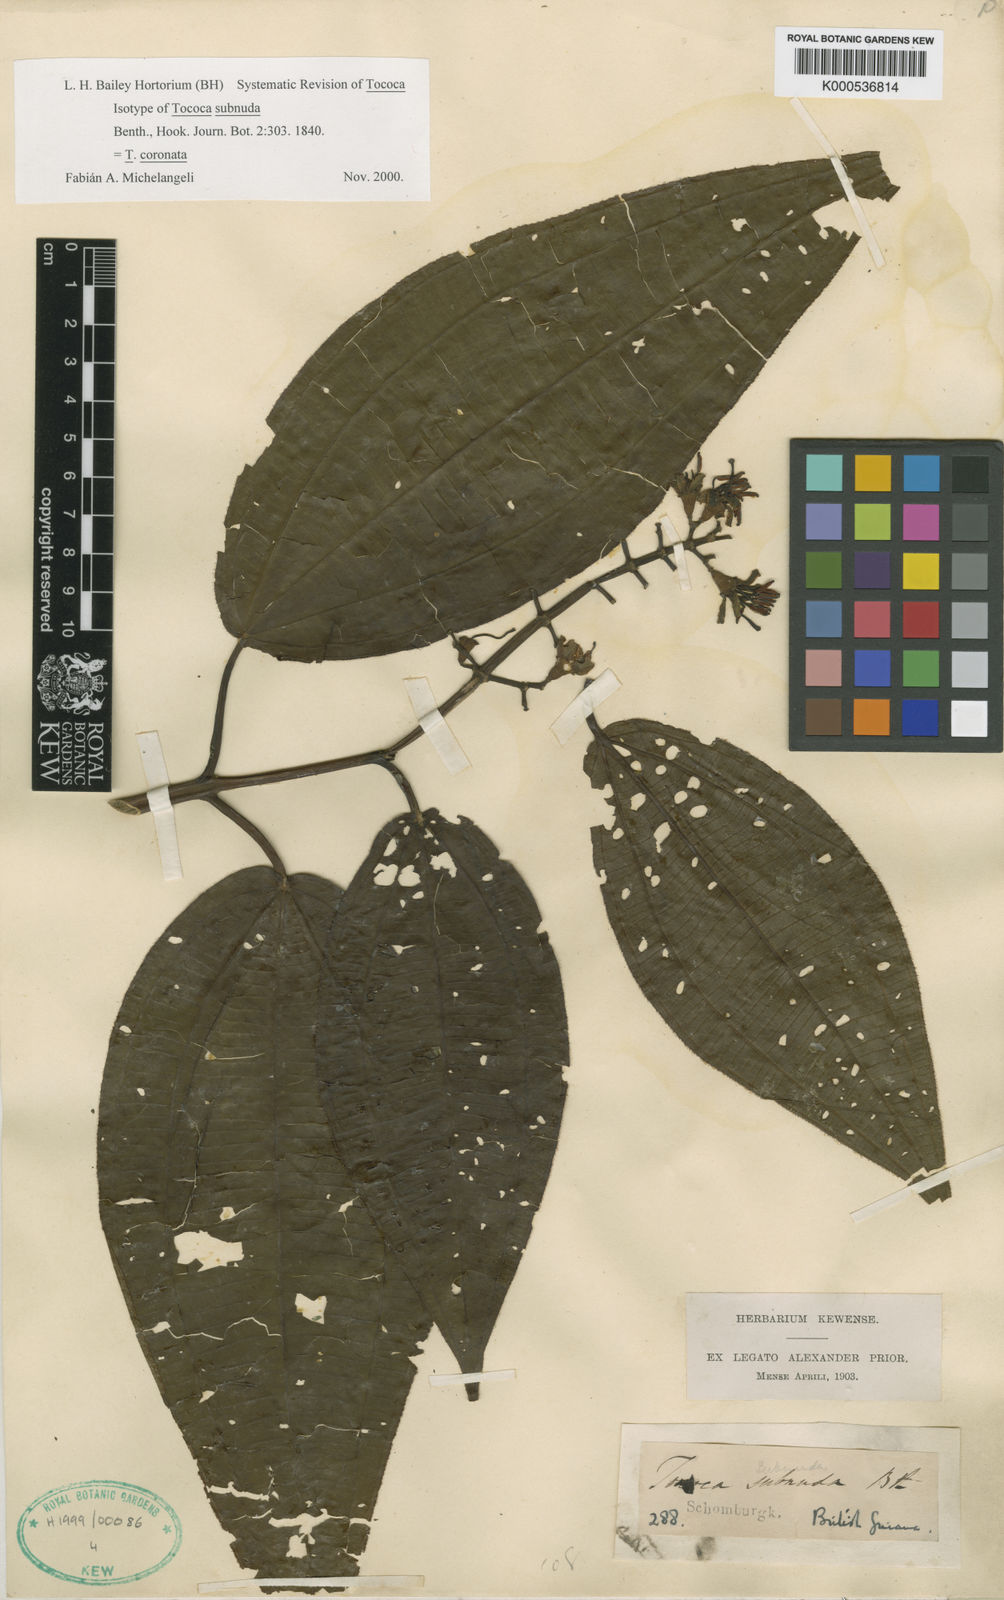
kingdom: Plantae
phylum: Tracheophyta
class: Magnoliopsida
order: Myrtales
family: Melastomataceae
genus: Miconia
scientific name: Miconia subciliata
